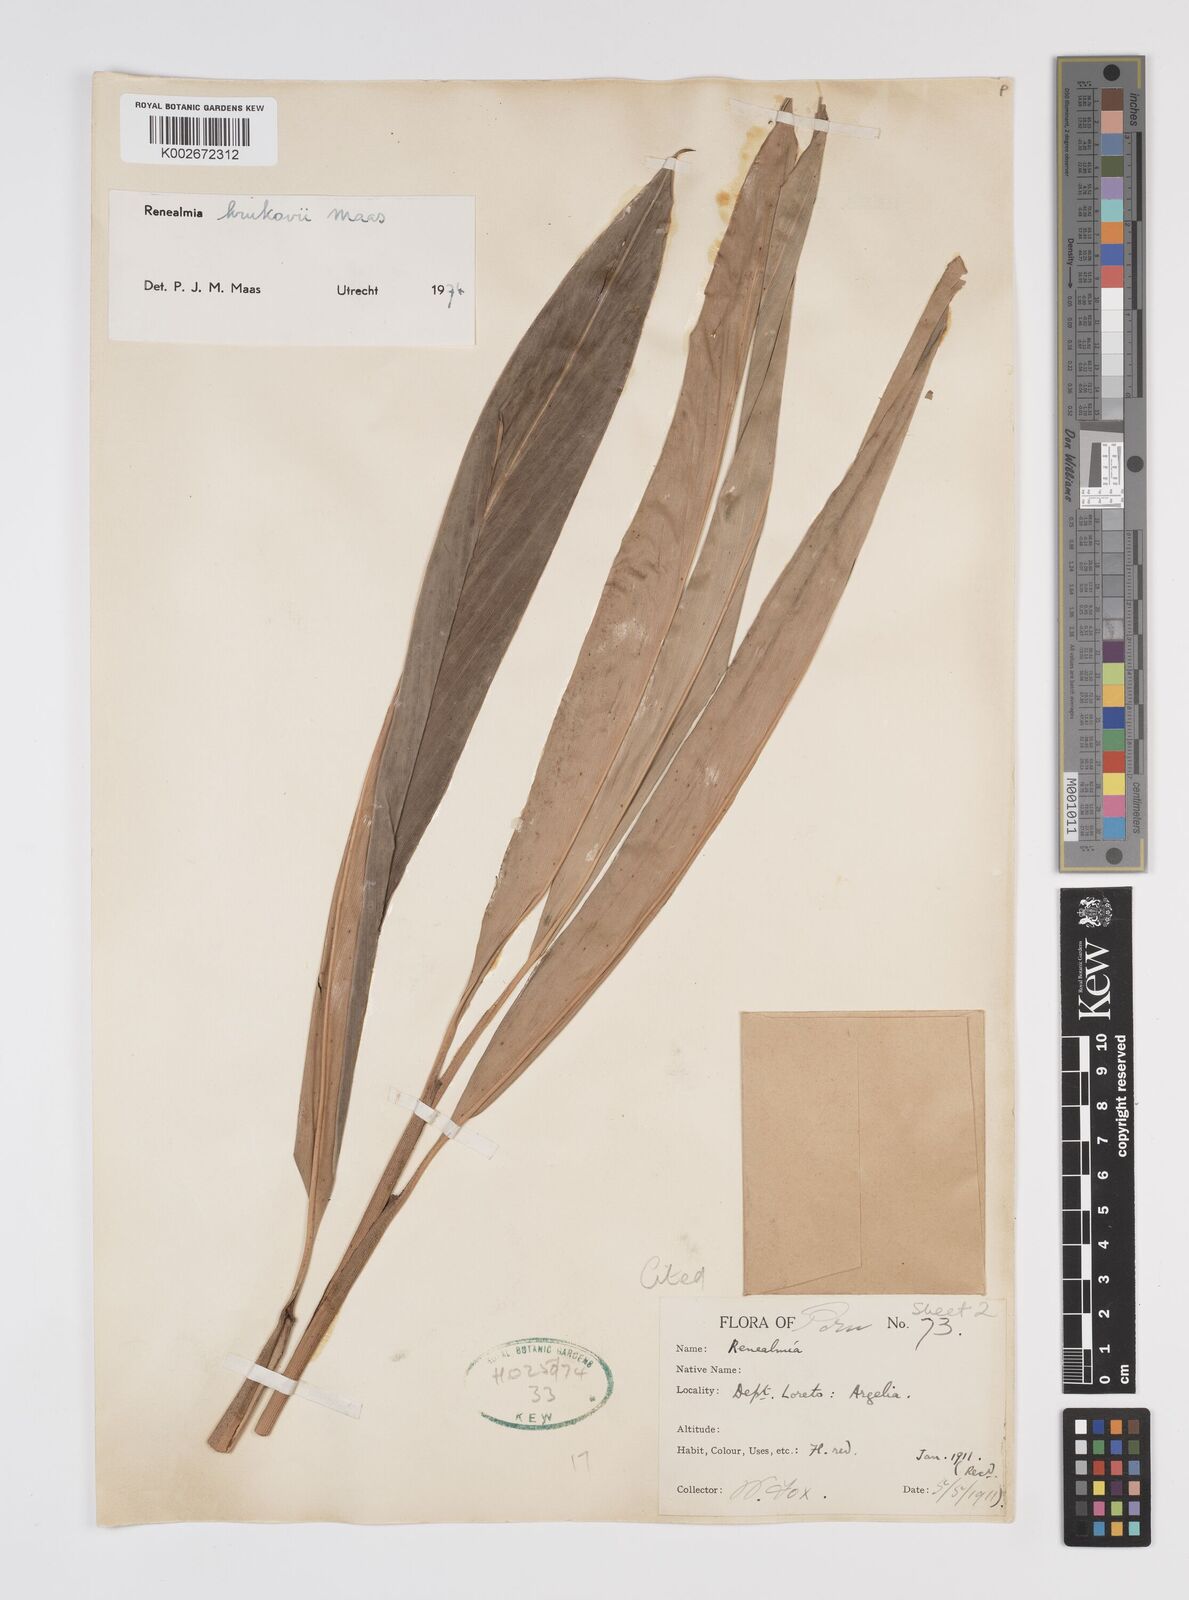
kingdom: Plantae
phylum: Tracheophyta
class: Liliopsida
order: Zingiberales
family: Zingiberaceae
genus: Renealmia
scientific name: Renealmia krukovii
